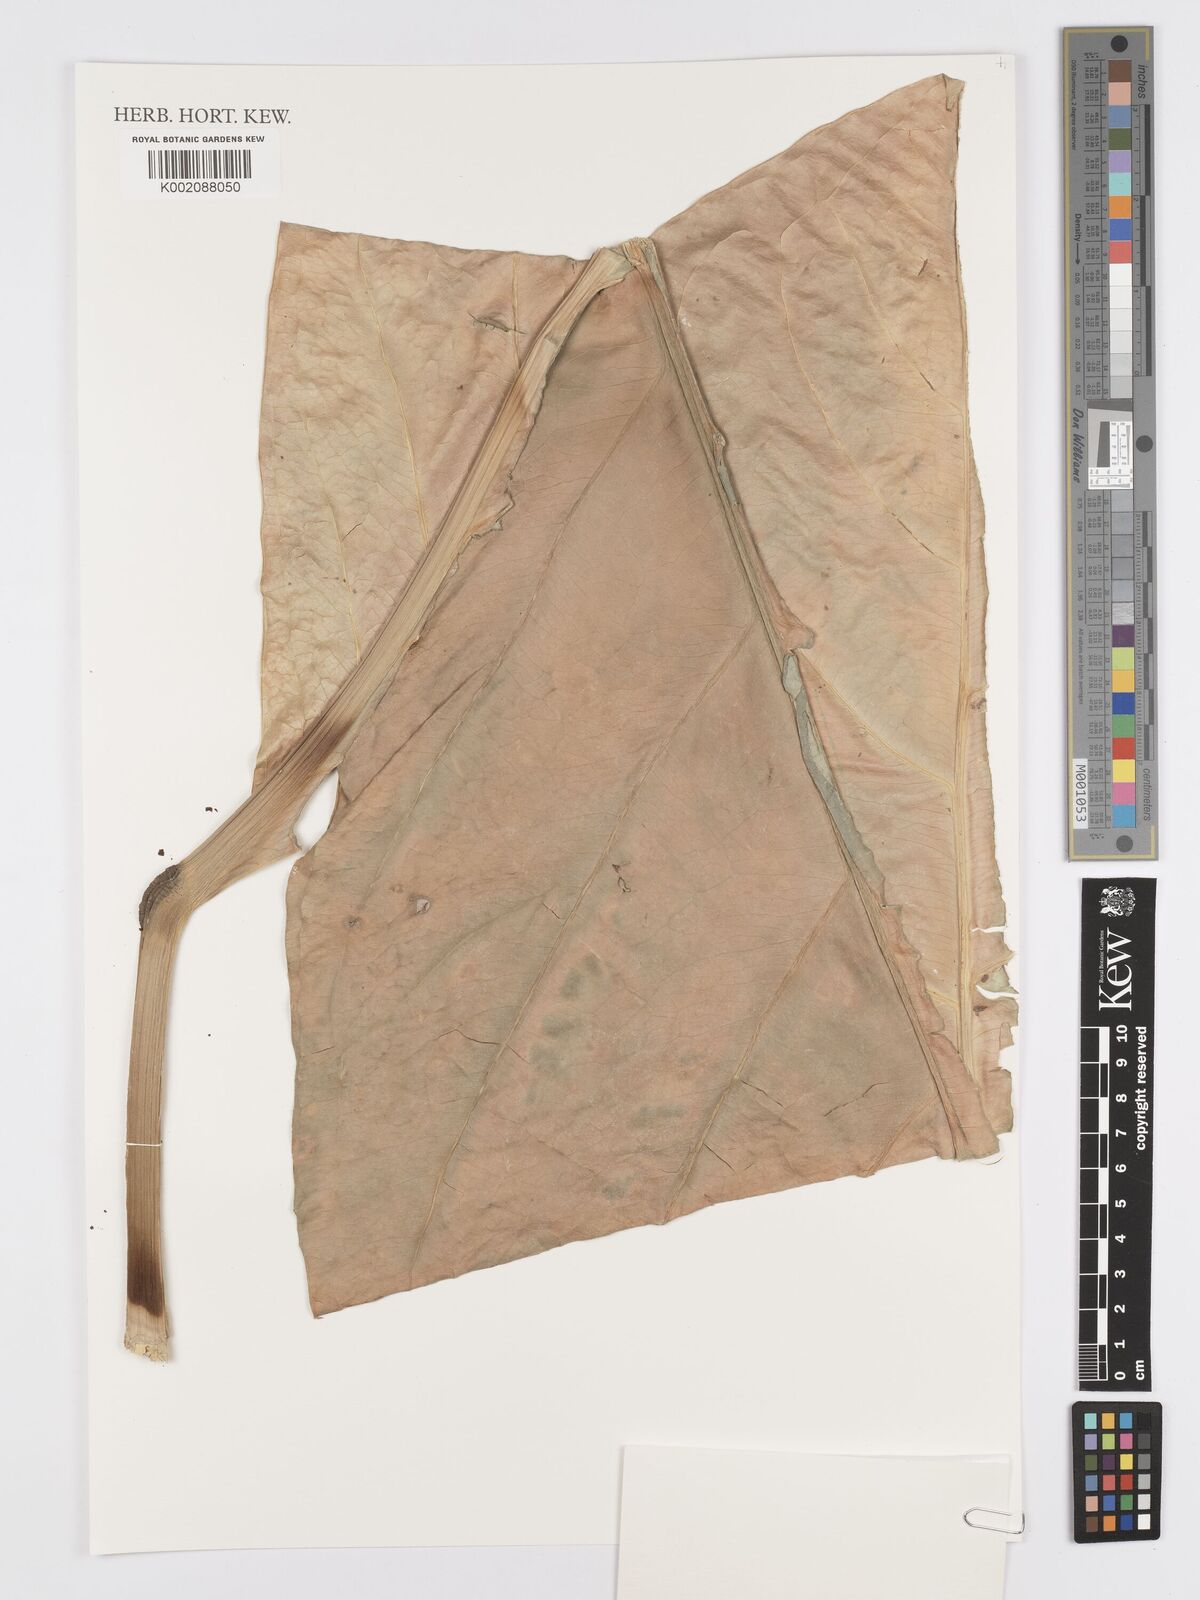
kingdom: Plantae
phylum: Tracheophyta
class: Liliopsida
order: Alismatales
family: Araceae
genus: Anthurium
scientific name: Anthurium solitarium
